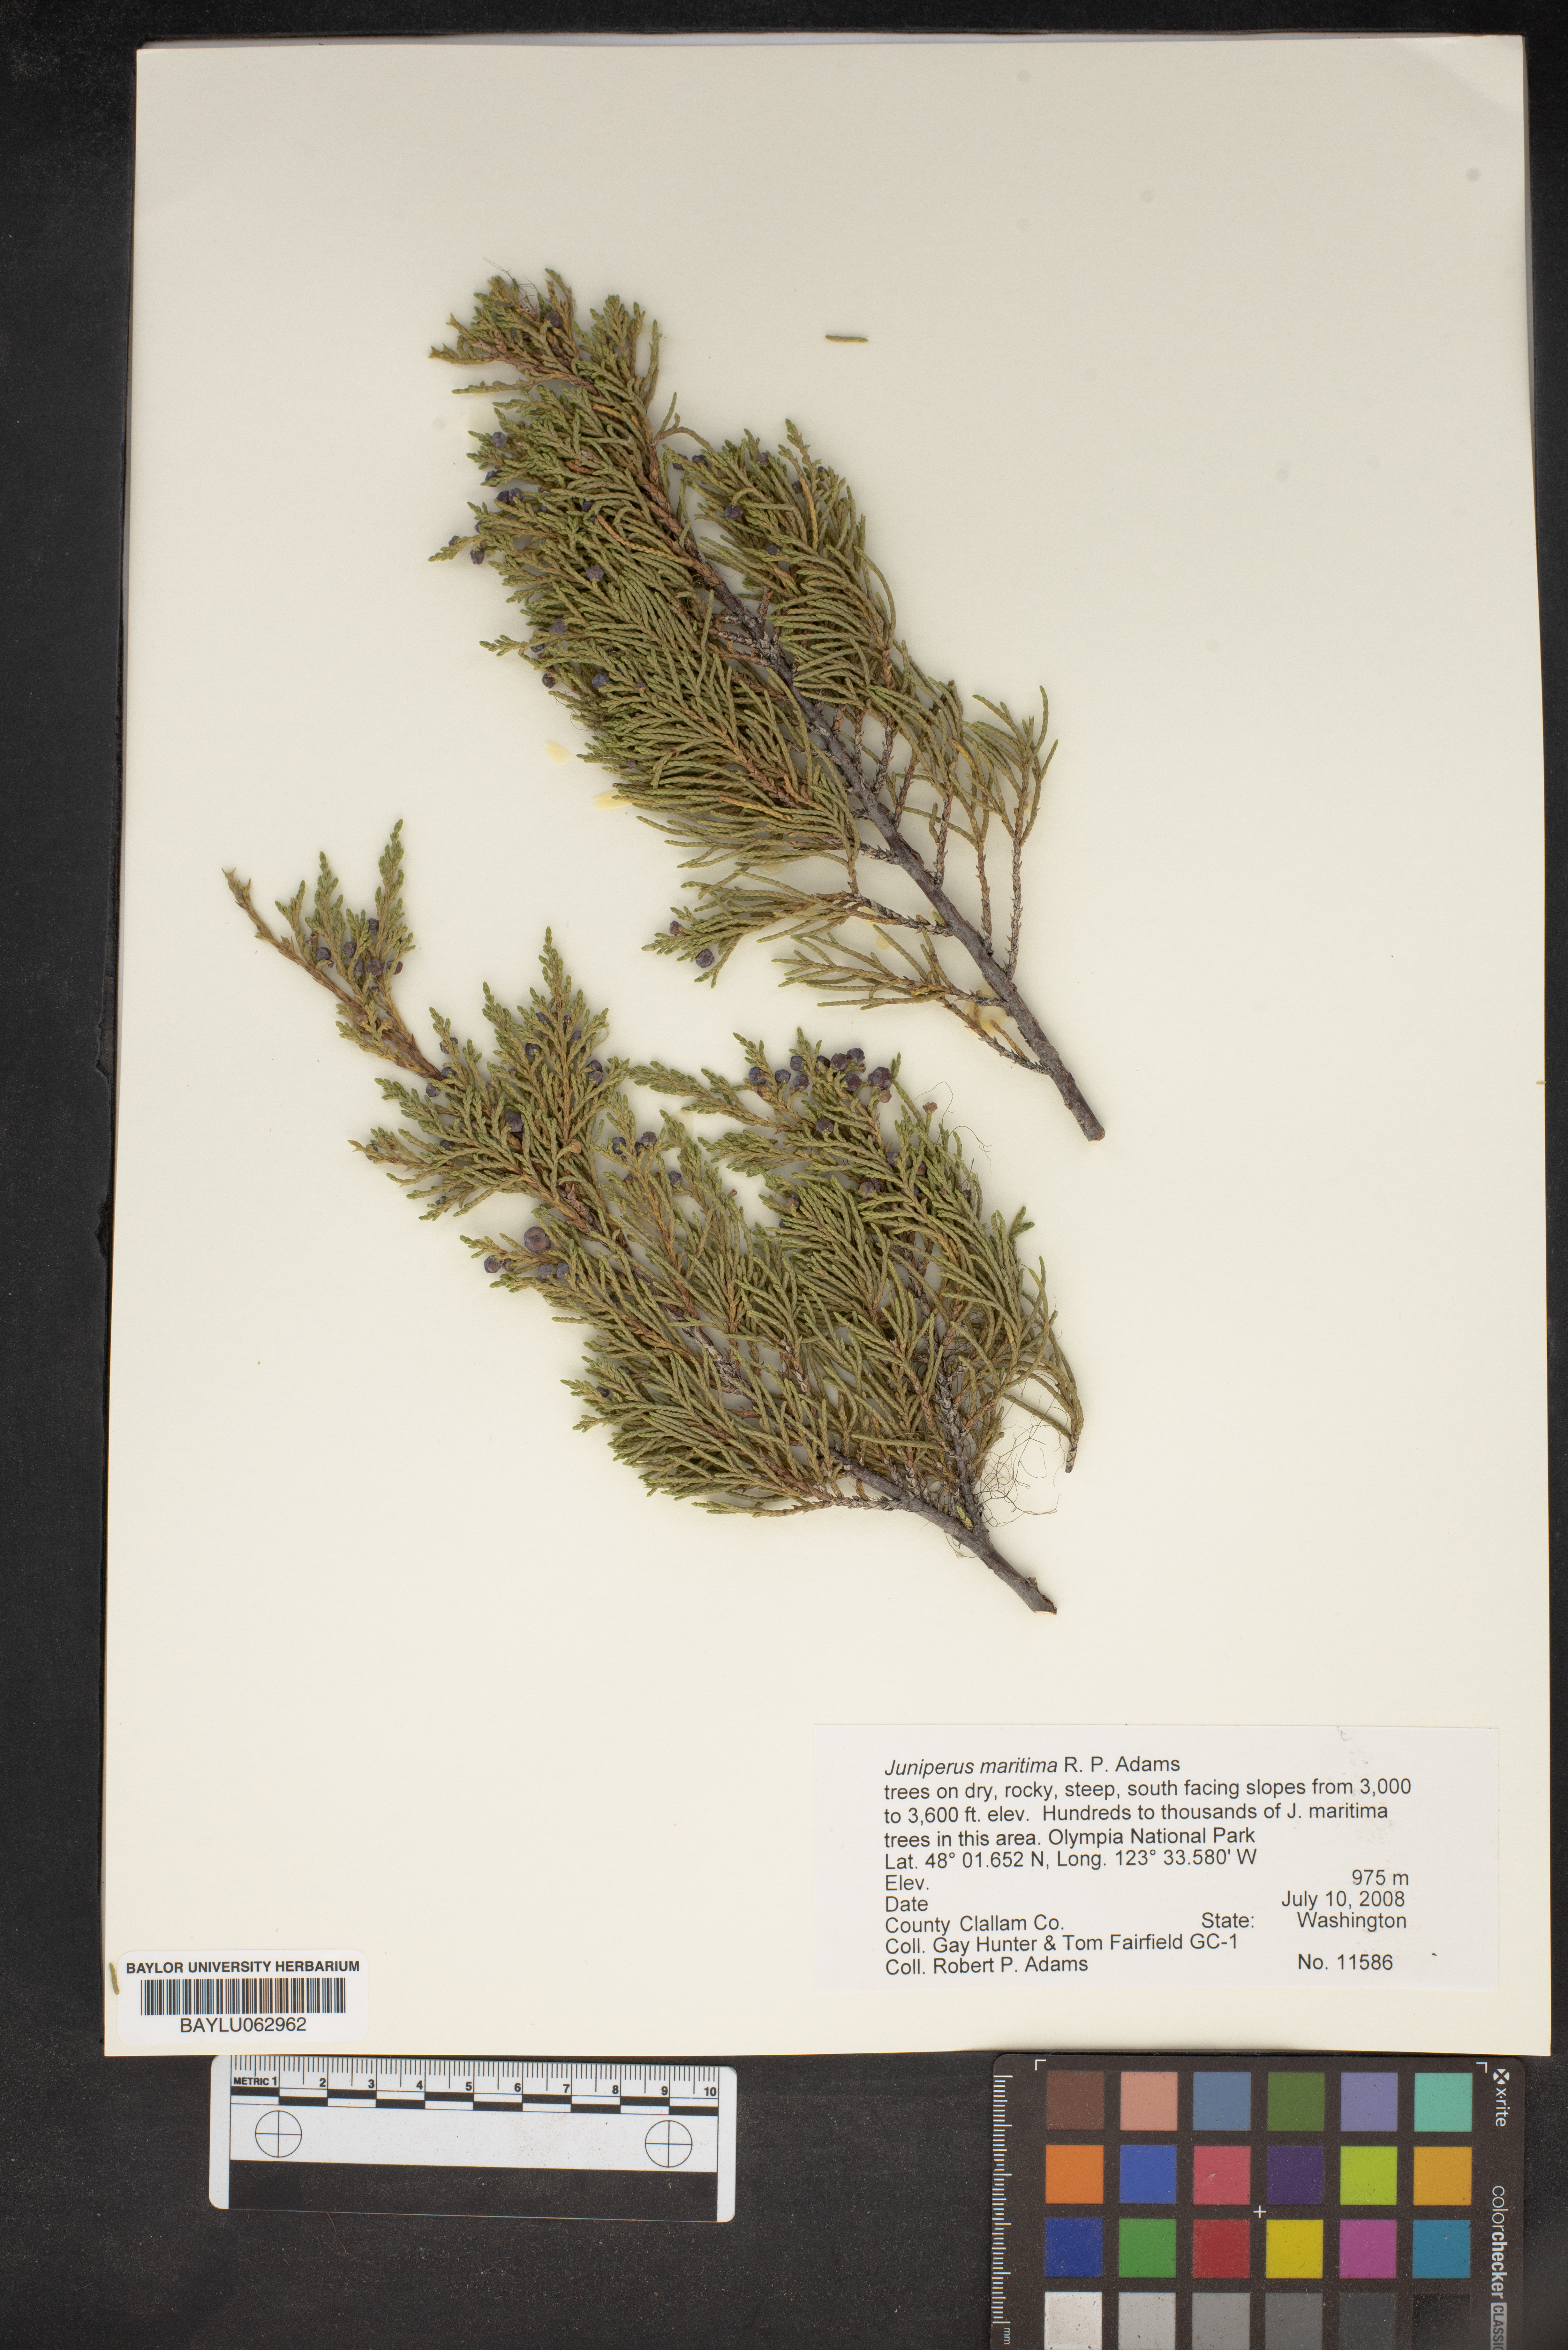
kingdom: Plantae
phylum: Tracheophyta
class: Pinopsida
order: Pinales
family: Cupressaceae
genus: Juniperus
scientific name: Juniperus scopulorum
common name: Rocky mountain juniper
